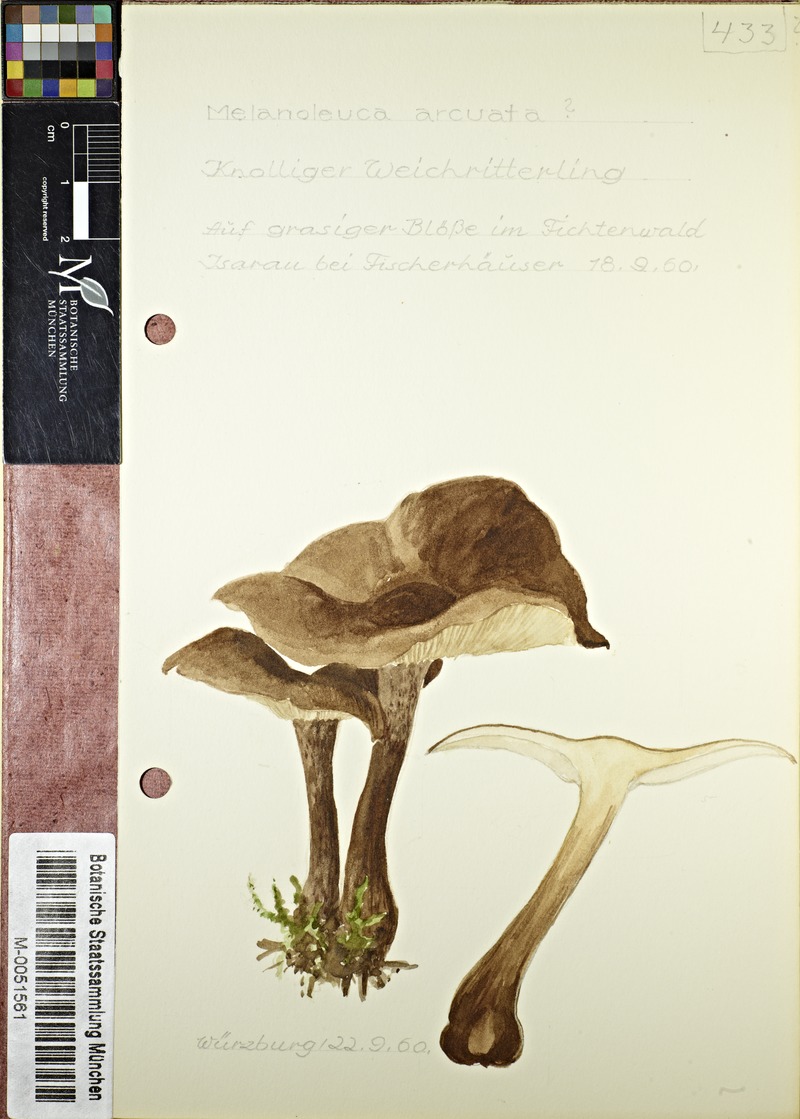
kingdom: Fungi
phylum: Basidiomycota
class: Agaricomycetes
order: Agaricales
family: Tricholomataceae
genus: Melanoleuca
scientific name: Melanoleuca arcuata
